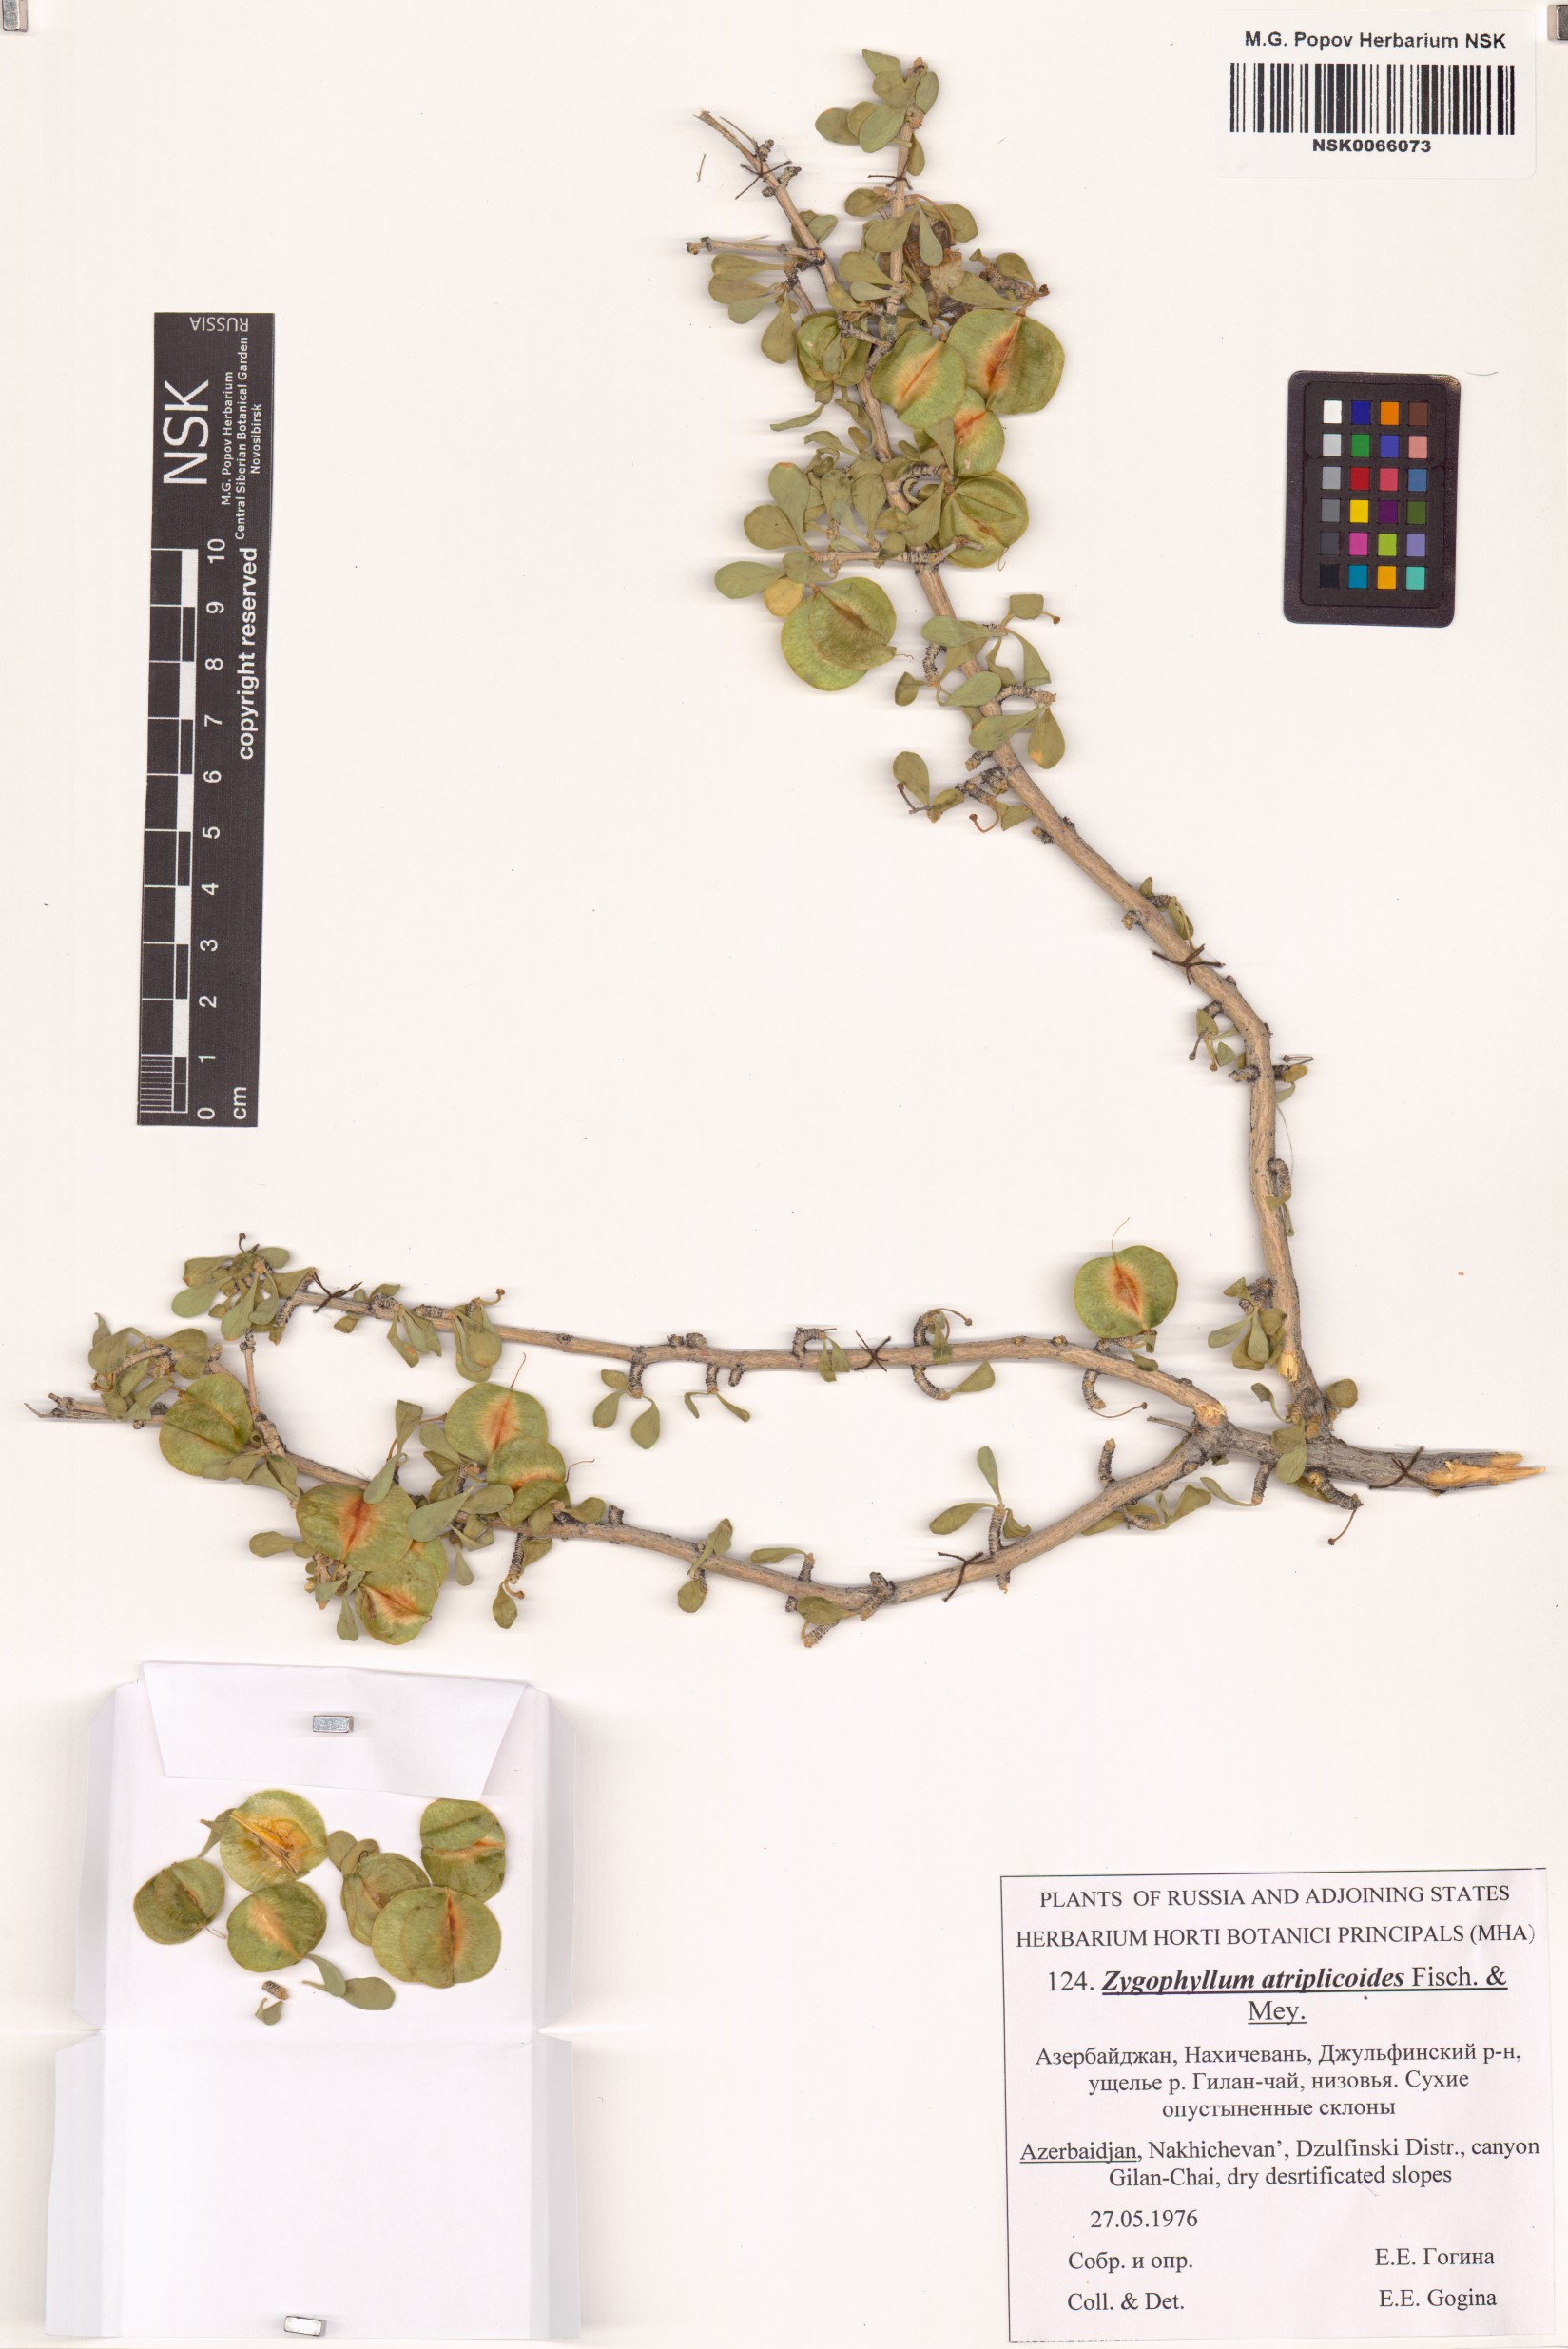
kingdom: Plantae
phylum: Tracheophyta
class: Magnoliopsida
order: Zygophyllales
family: Zygophyllaceae
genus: Zygophyllum
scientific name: Zygophyllum atriplicoides
